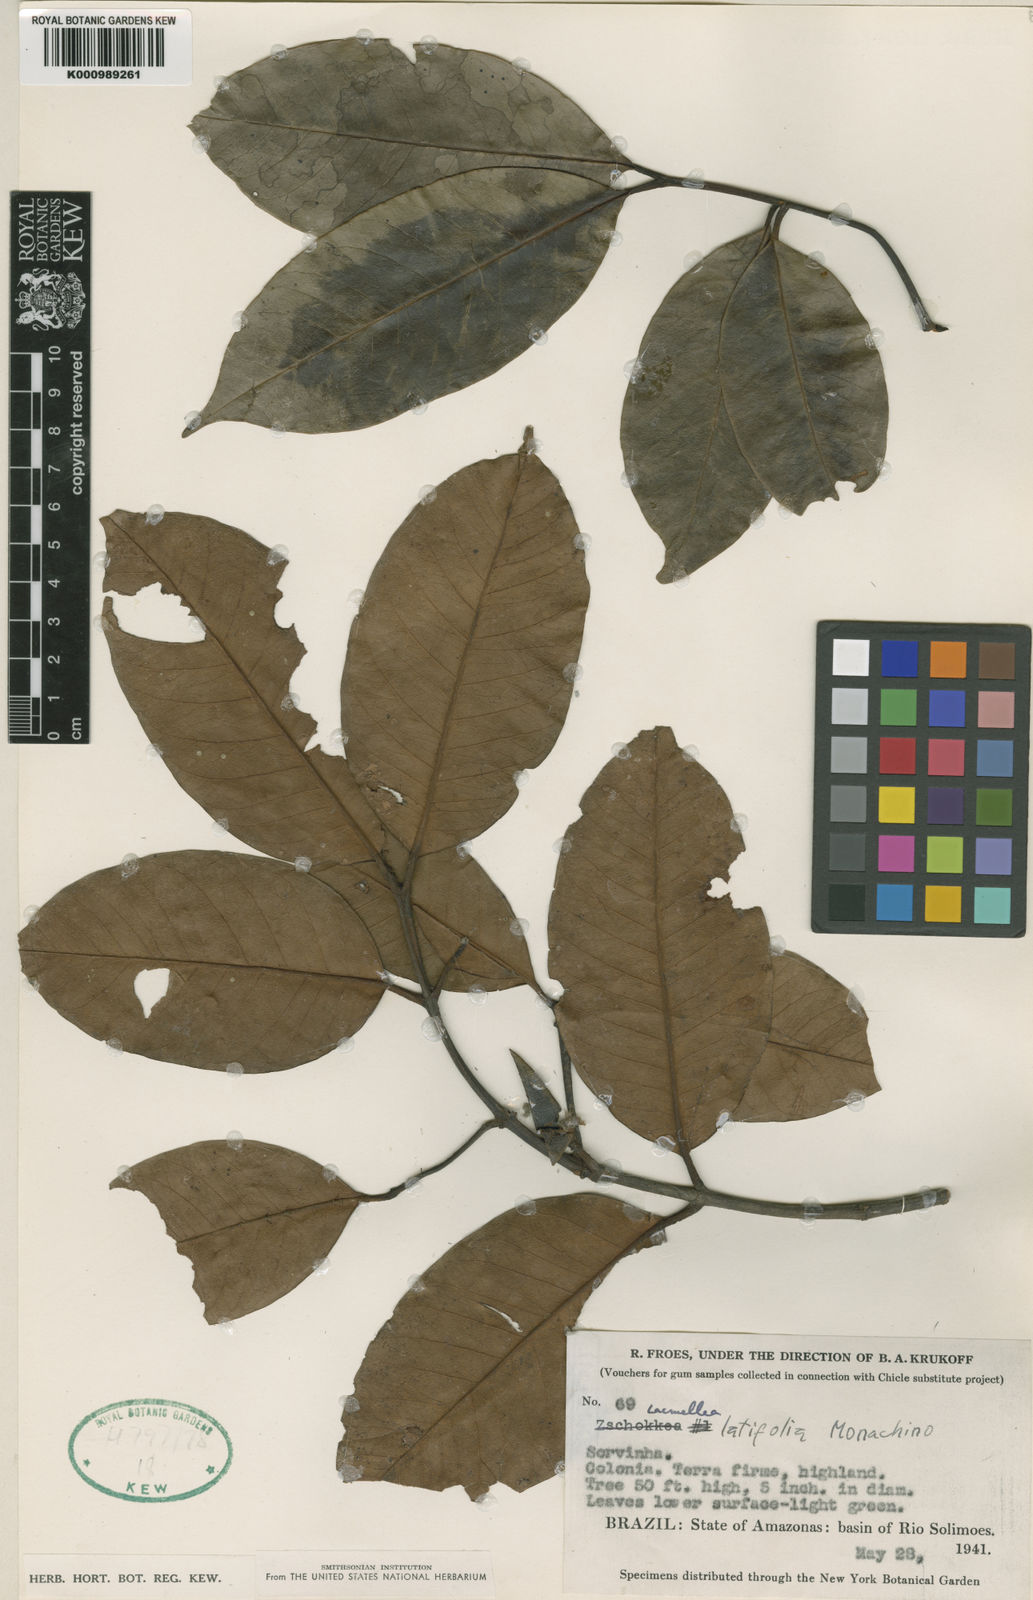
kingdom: Plantae
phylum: Tracheophyta
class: Magnoliopsida
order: Gentianales
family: Apocynaceae
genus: Lacmellea
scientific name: Lacmellea
